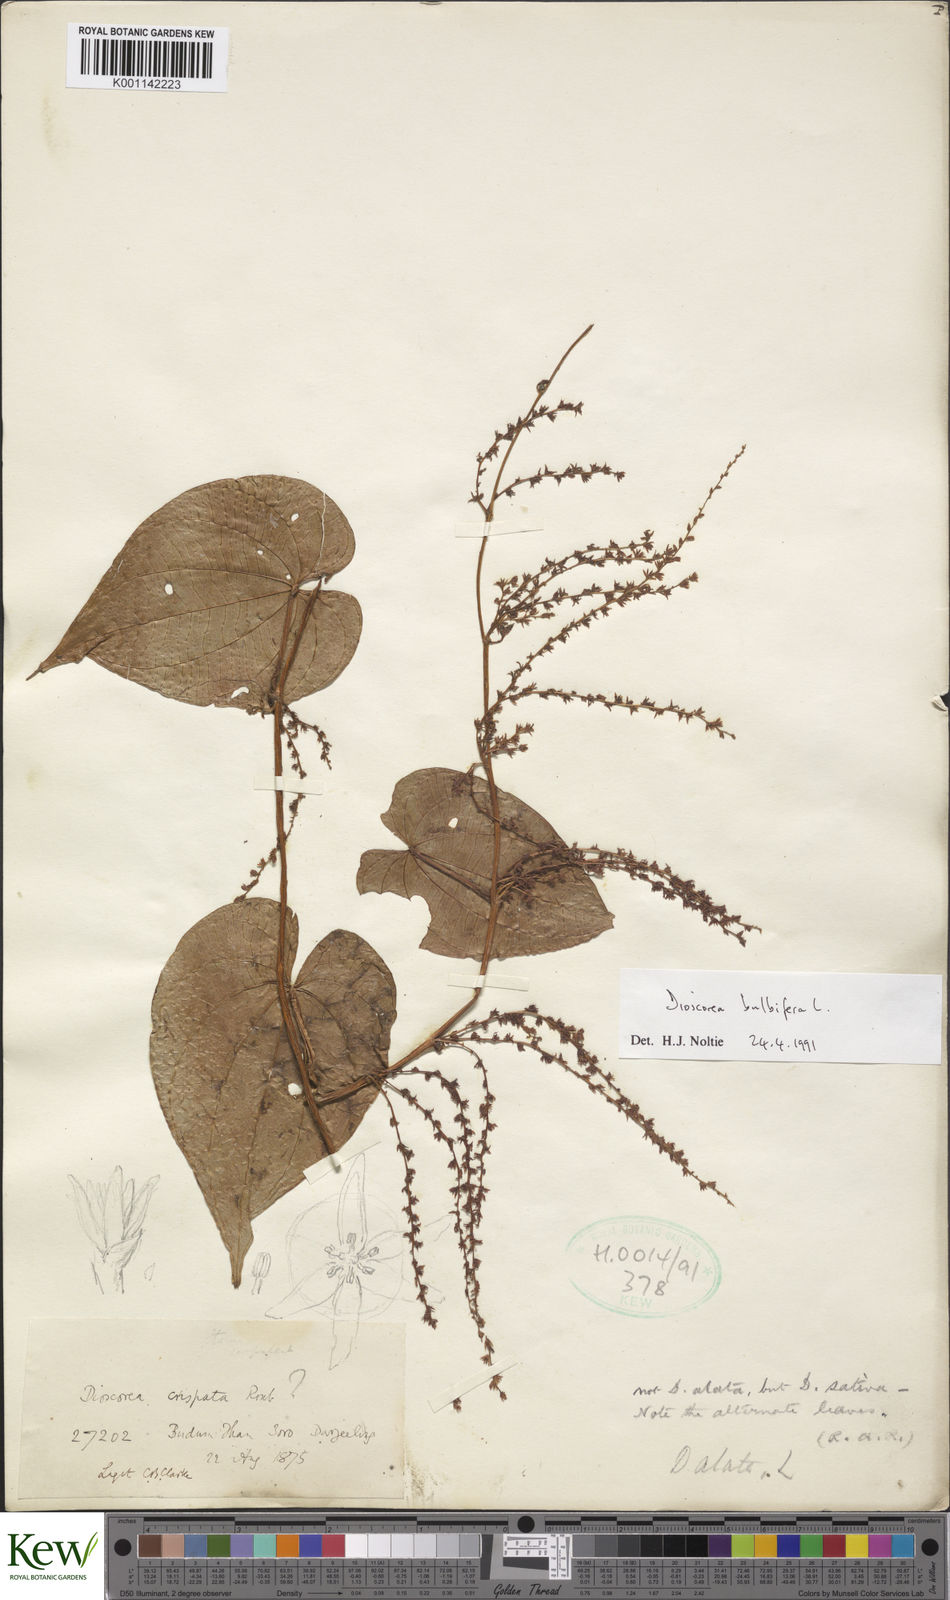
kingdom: Plantae
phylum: Tracheophyta
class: Liliopsida
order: Dioscoreales
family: Dioscoreaceae
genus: Dioscorea
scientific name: Dioscorea bulbifera
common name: Air yam
